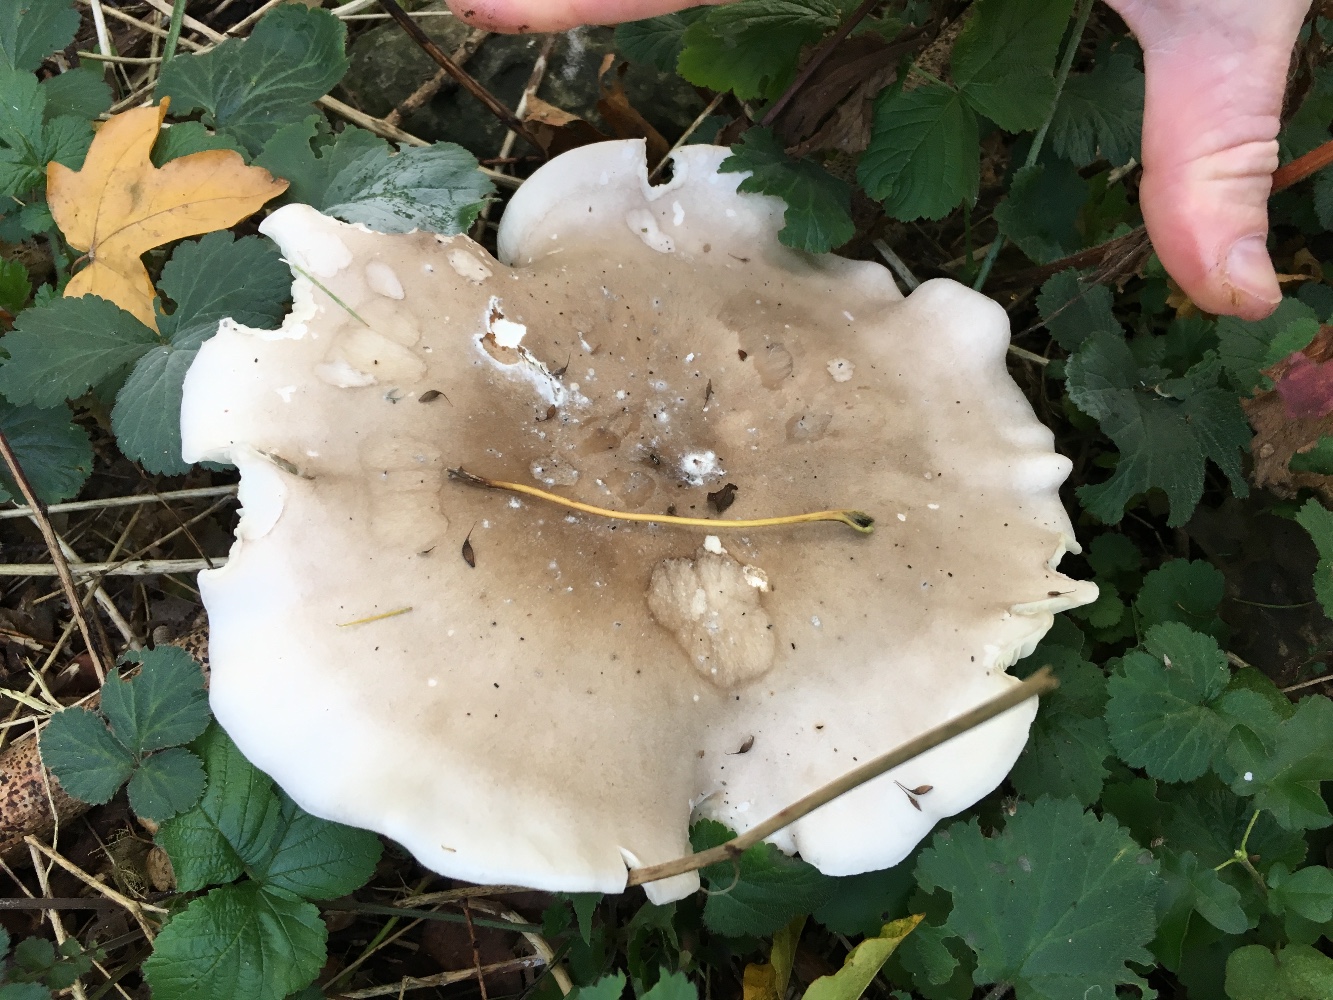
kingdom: Fungi
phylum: Basidiomycota
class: Agaricomycetes
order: Agaricales
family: Tricholomataceae
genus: Clitocybe
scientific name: Clitocybe nebularis
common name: tåge-tragthat
